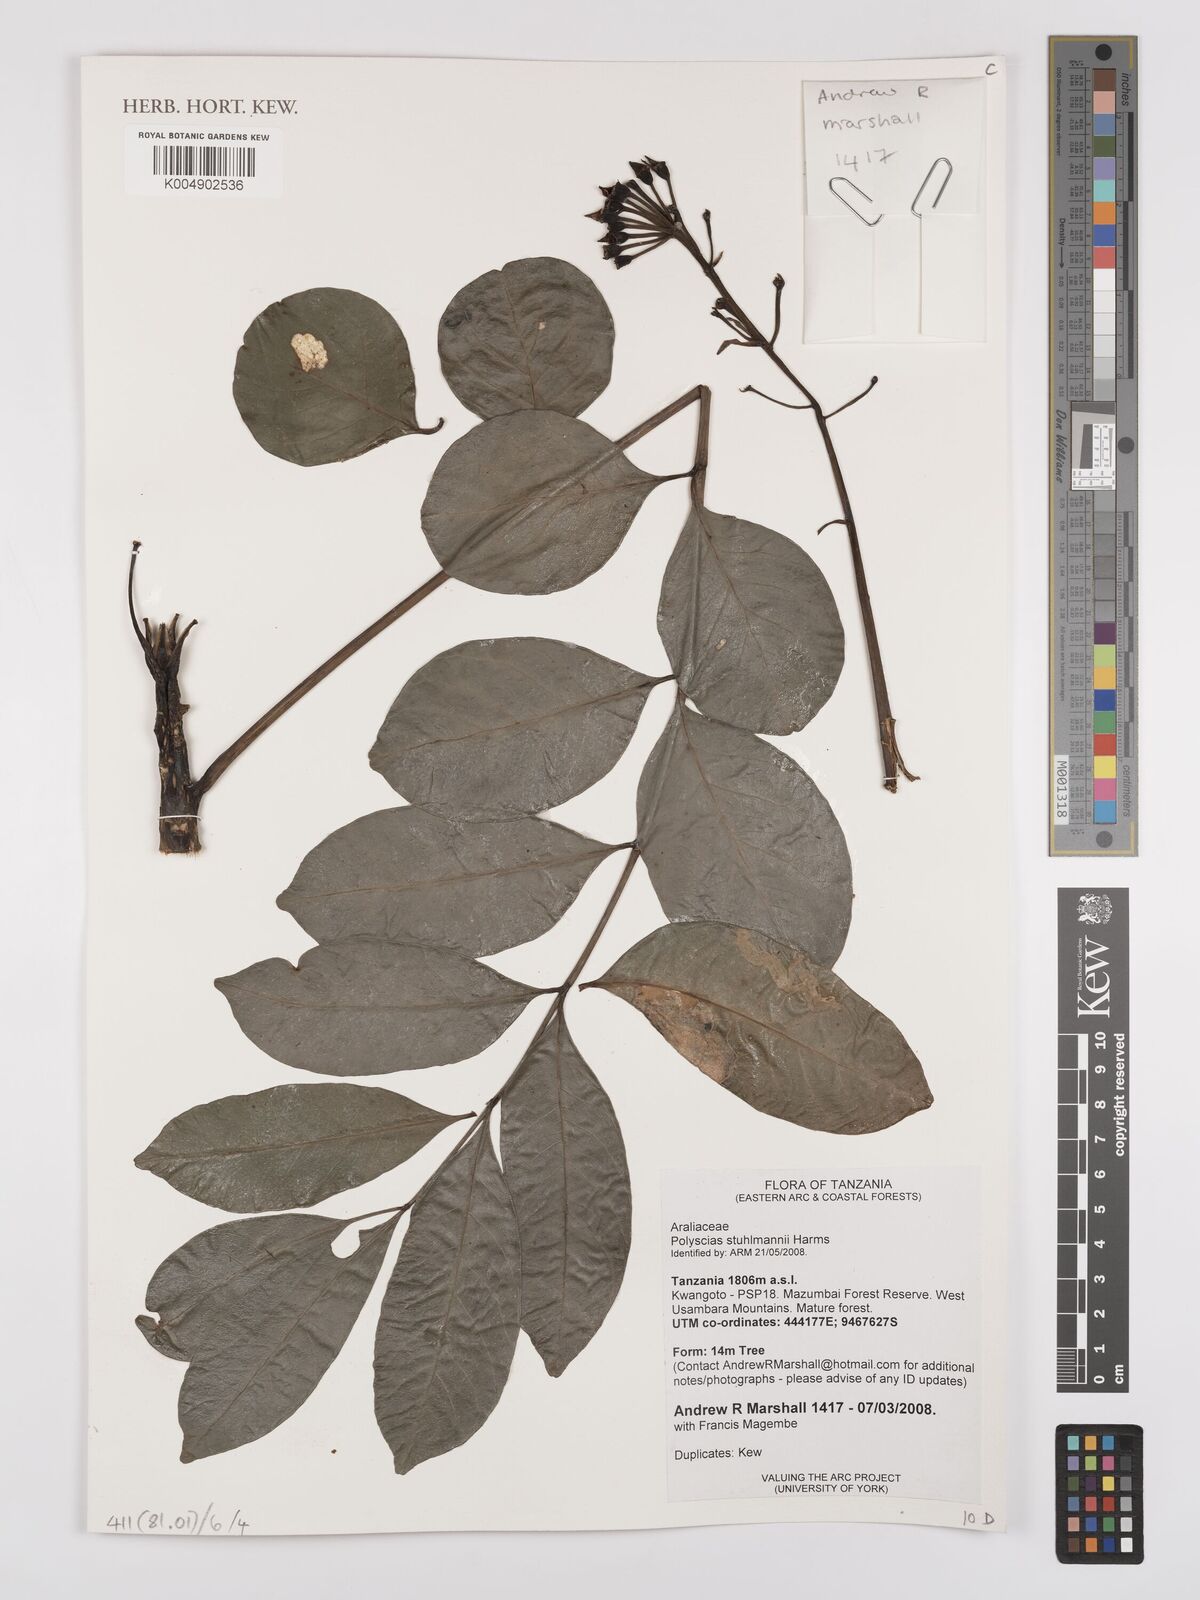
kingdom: Plantae
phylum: Tracheophyta
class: Magnoliopsida
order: Apiales
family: Araliaceae
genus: Polyscias
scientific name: Polyscias stuhlmannii
